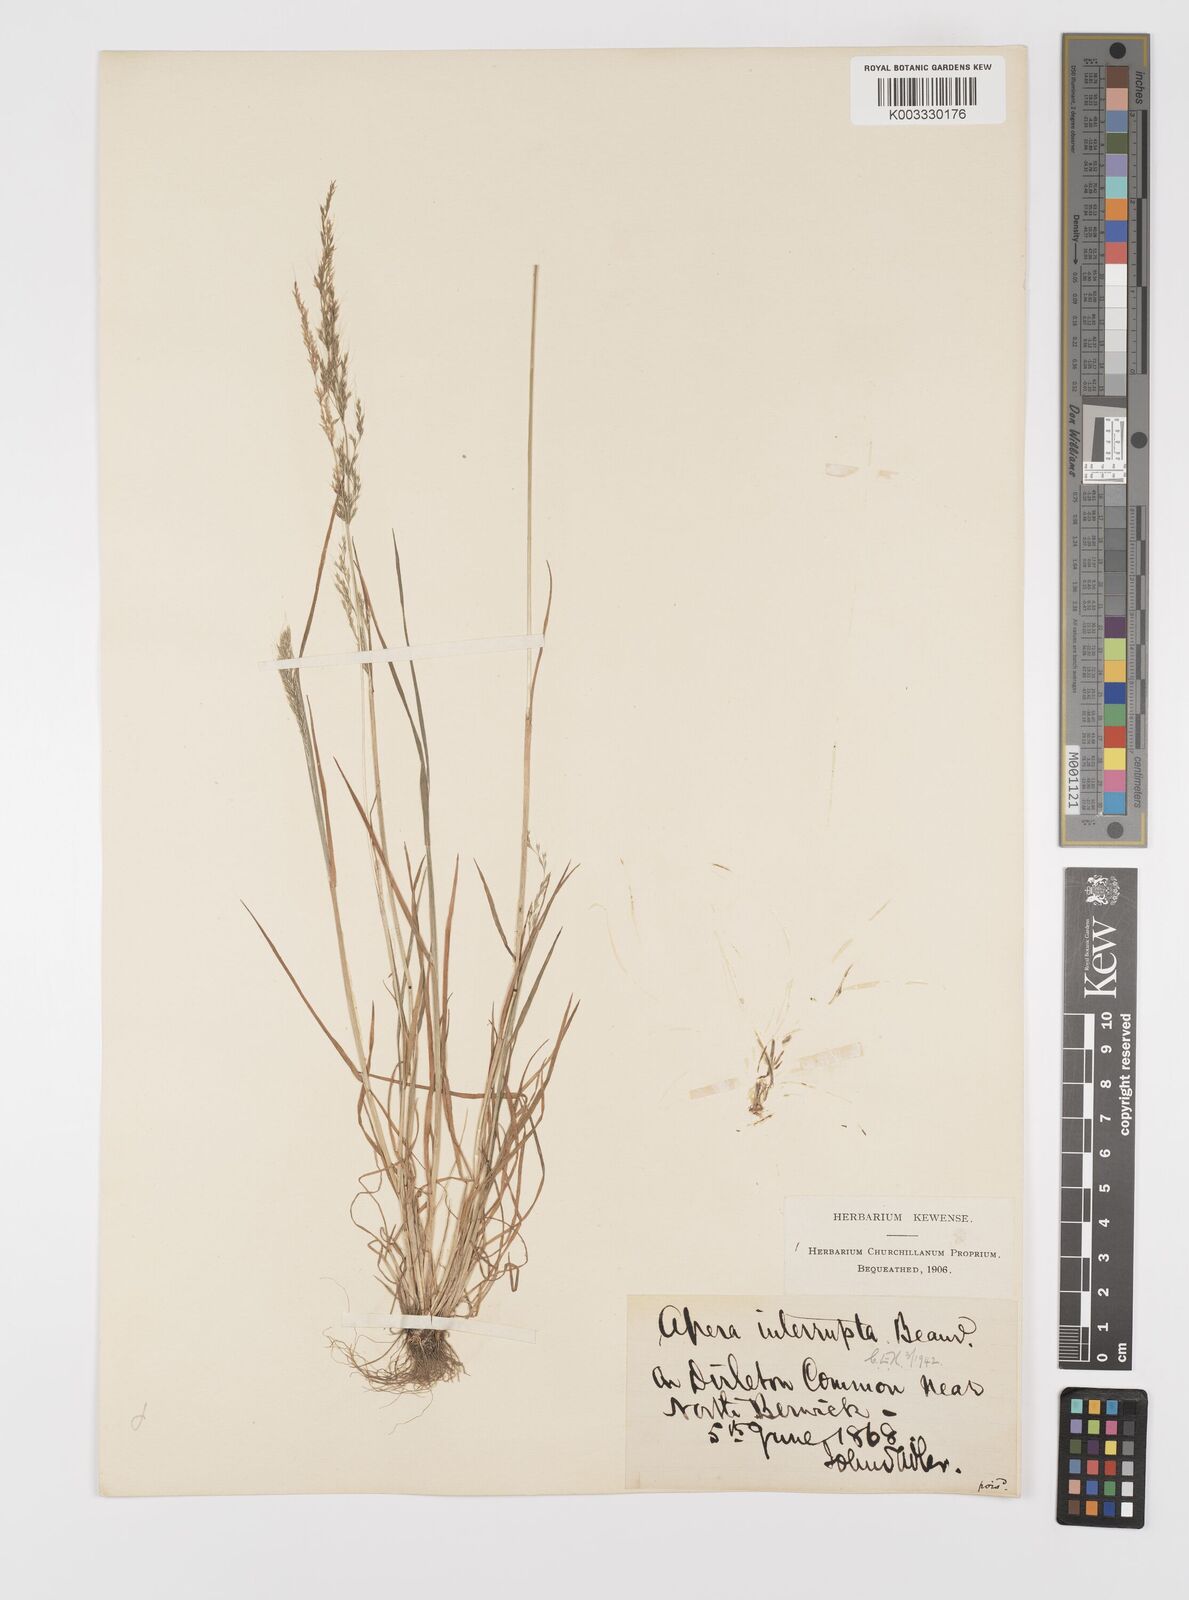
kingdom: Plantae
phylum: Tracheophyta
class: Liliopsida
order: Poales
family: Poaceae
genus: Apera
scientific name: Apera interrupta
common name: Dense silky-bent
